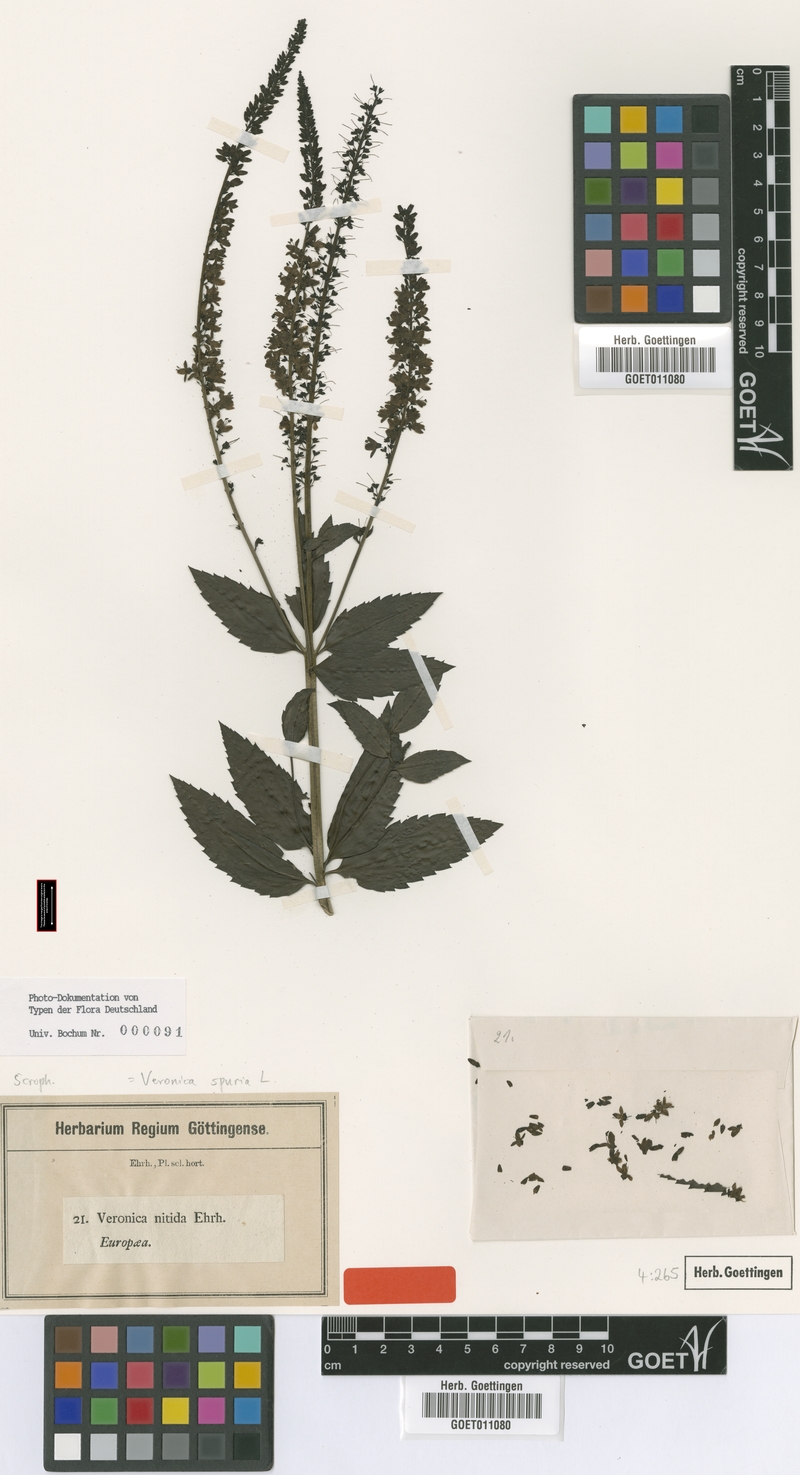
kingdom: Plantae
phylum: Tracheophyta
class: Magnoliopsida
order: Lamiales
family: Plantaginaceae
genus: Veronica
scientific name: Veronica spuria
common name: Bastard speedwell
